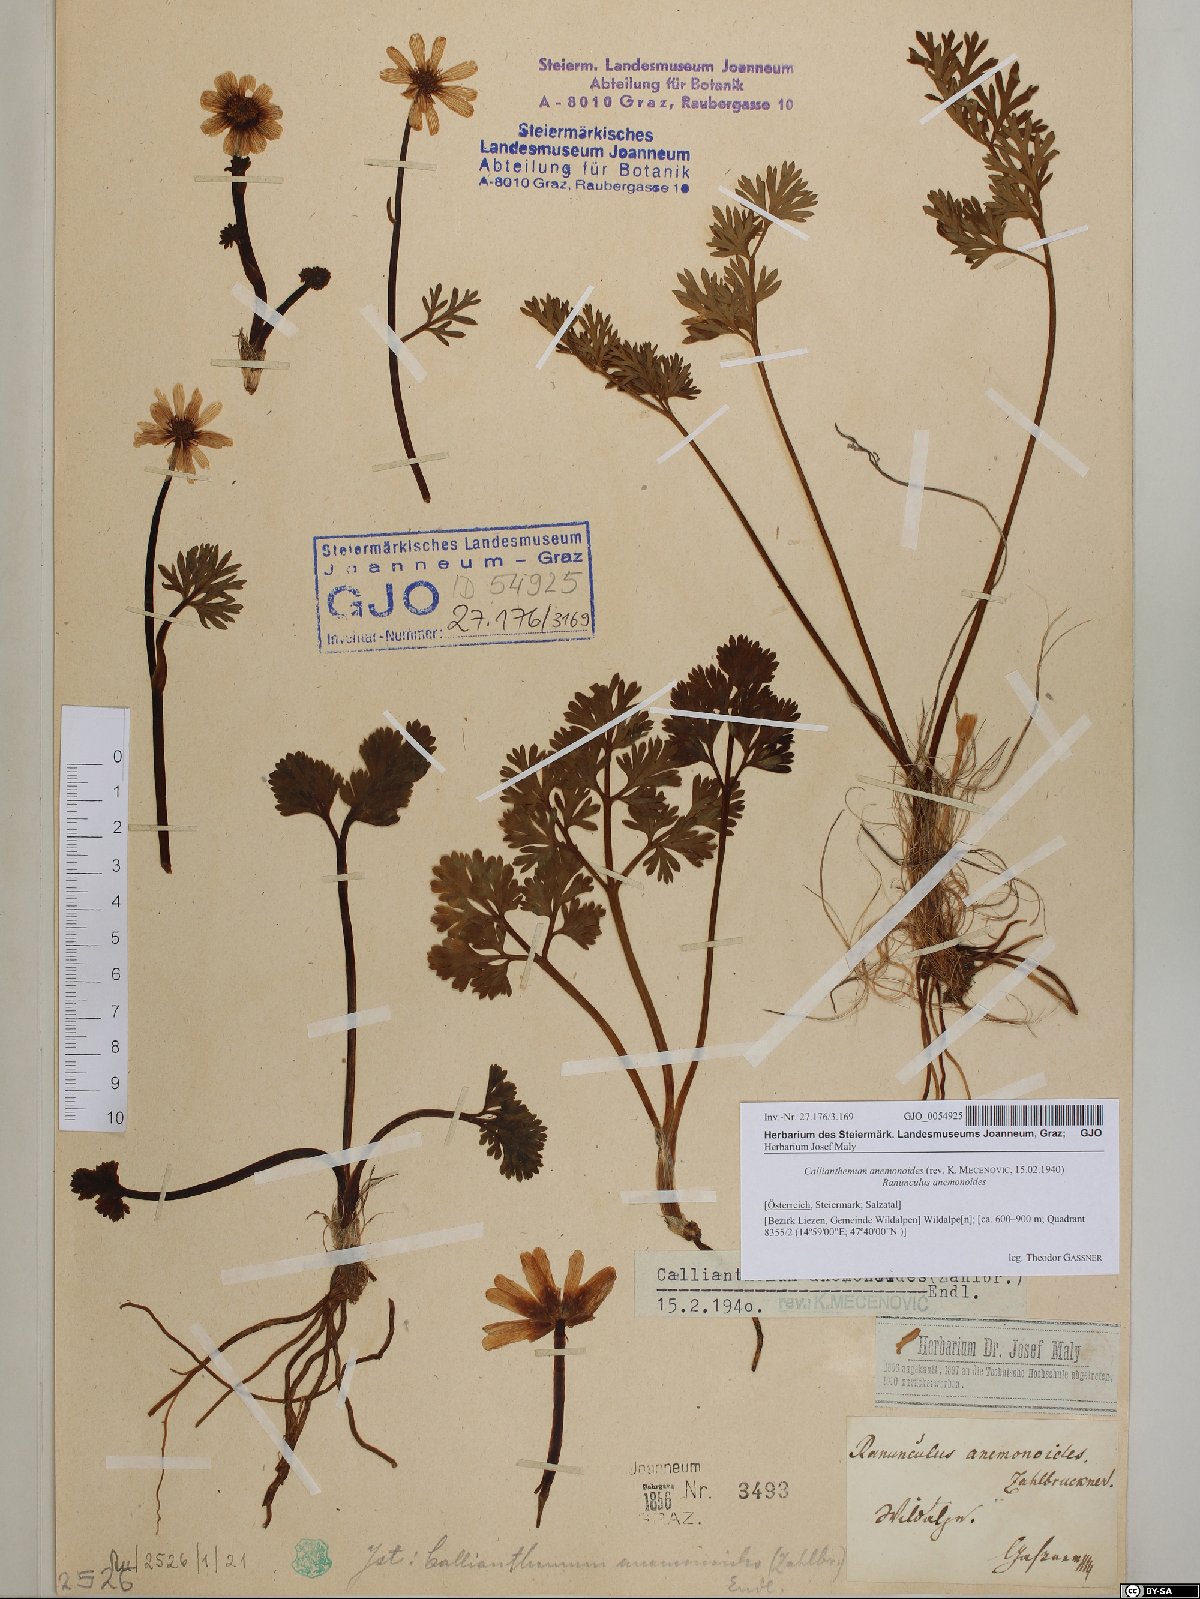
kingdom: Plantae
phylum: Tracheophyta
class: Magnoliopsida
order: Ranunculales
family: Ranunculaceae
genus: Callianthemum
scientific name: Callianthemum anemonoides
